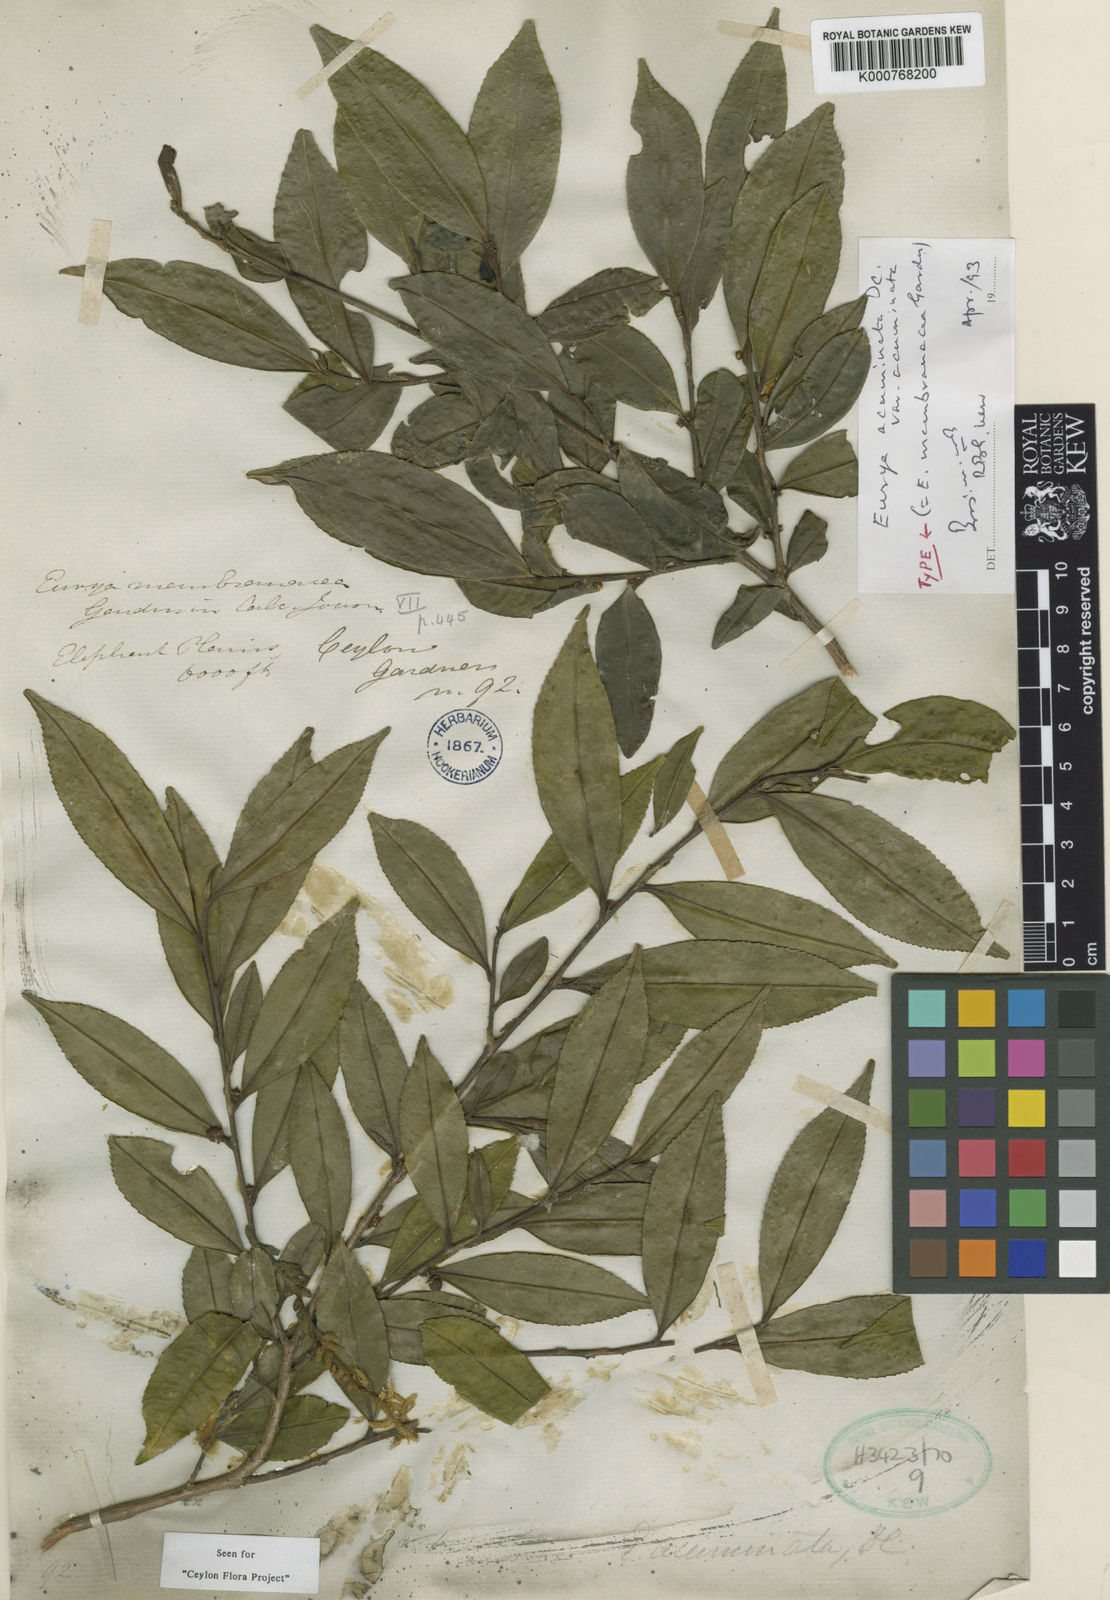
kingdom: Plantae
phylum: Tracheophyta
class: Magnoliopsida
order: Ericales
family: Pentaphylacaceae
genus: Eurya
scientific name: Eurya acuminata
